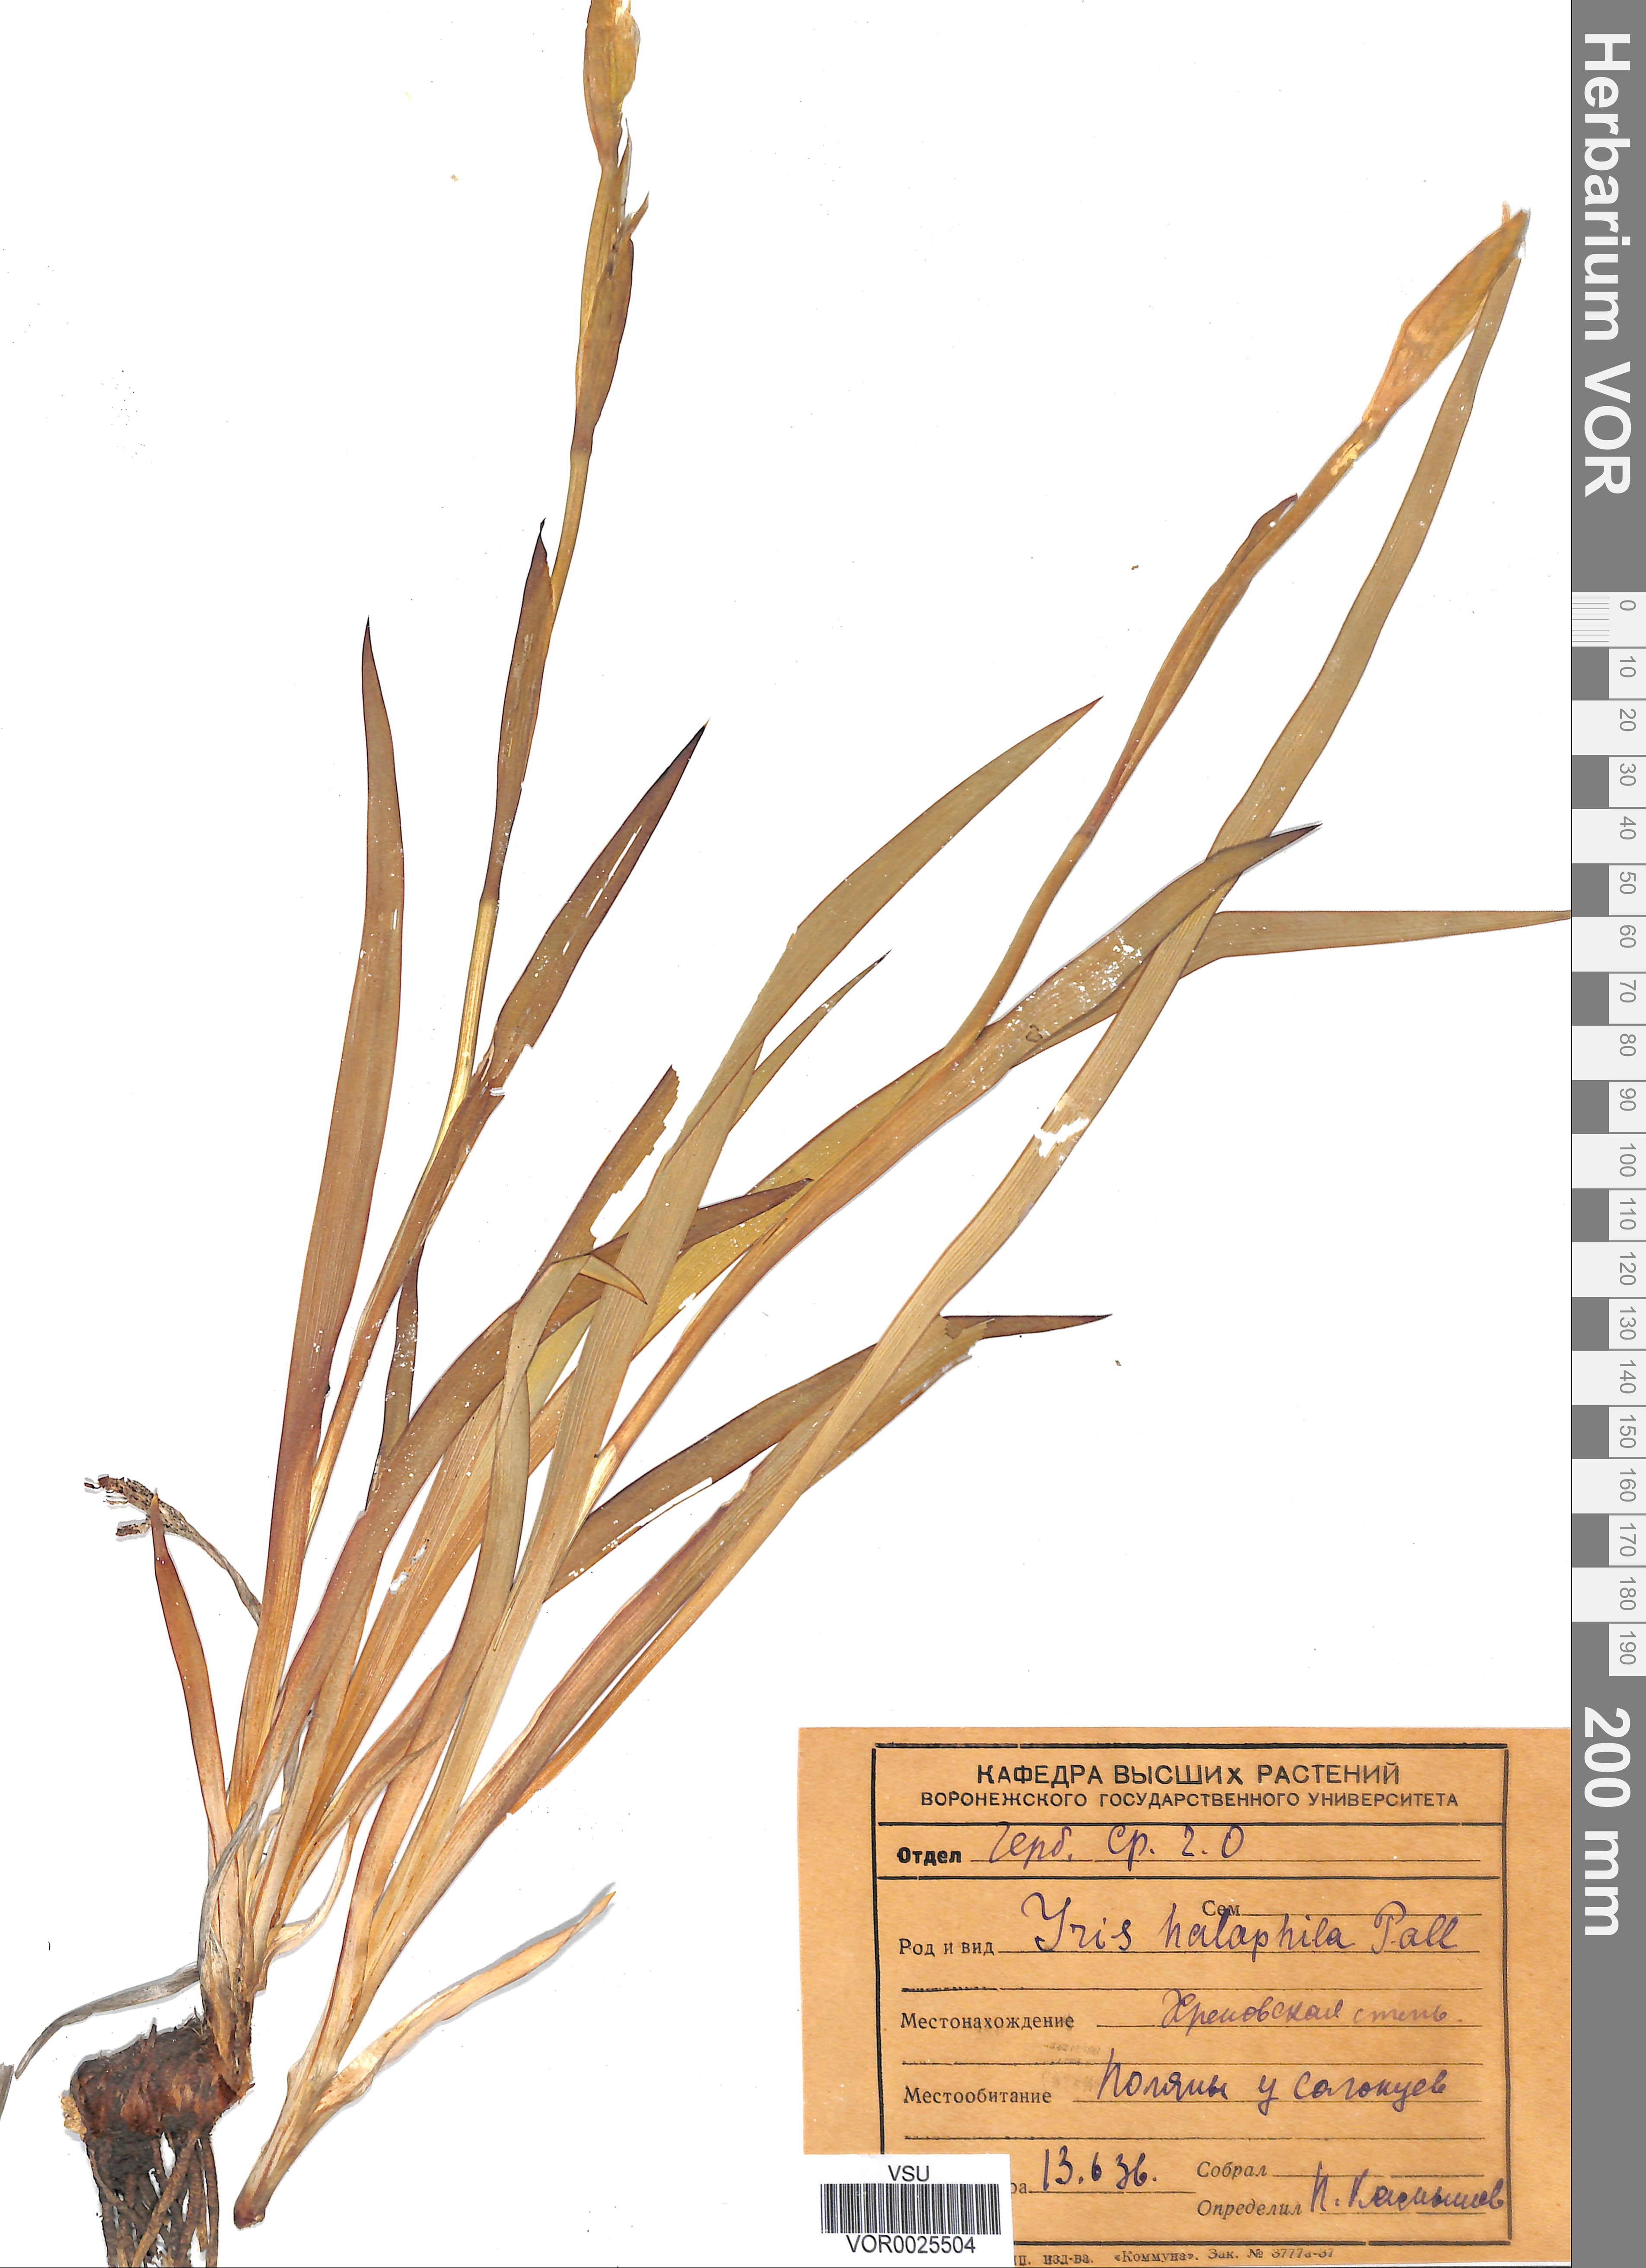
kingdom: Plantae
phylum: Tracheophyta
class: Liliopsida
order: Asparagales
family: Iridaceae
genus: Iris
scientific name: Iris halophila
